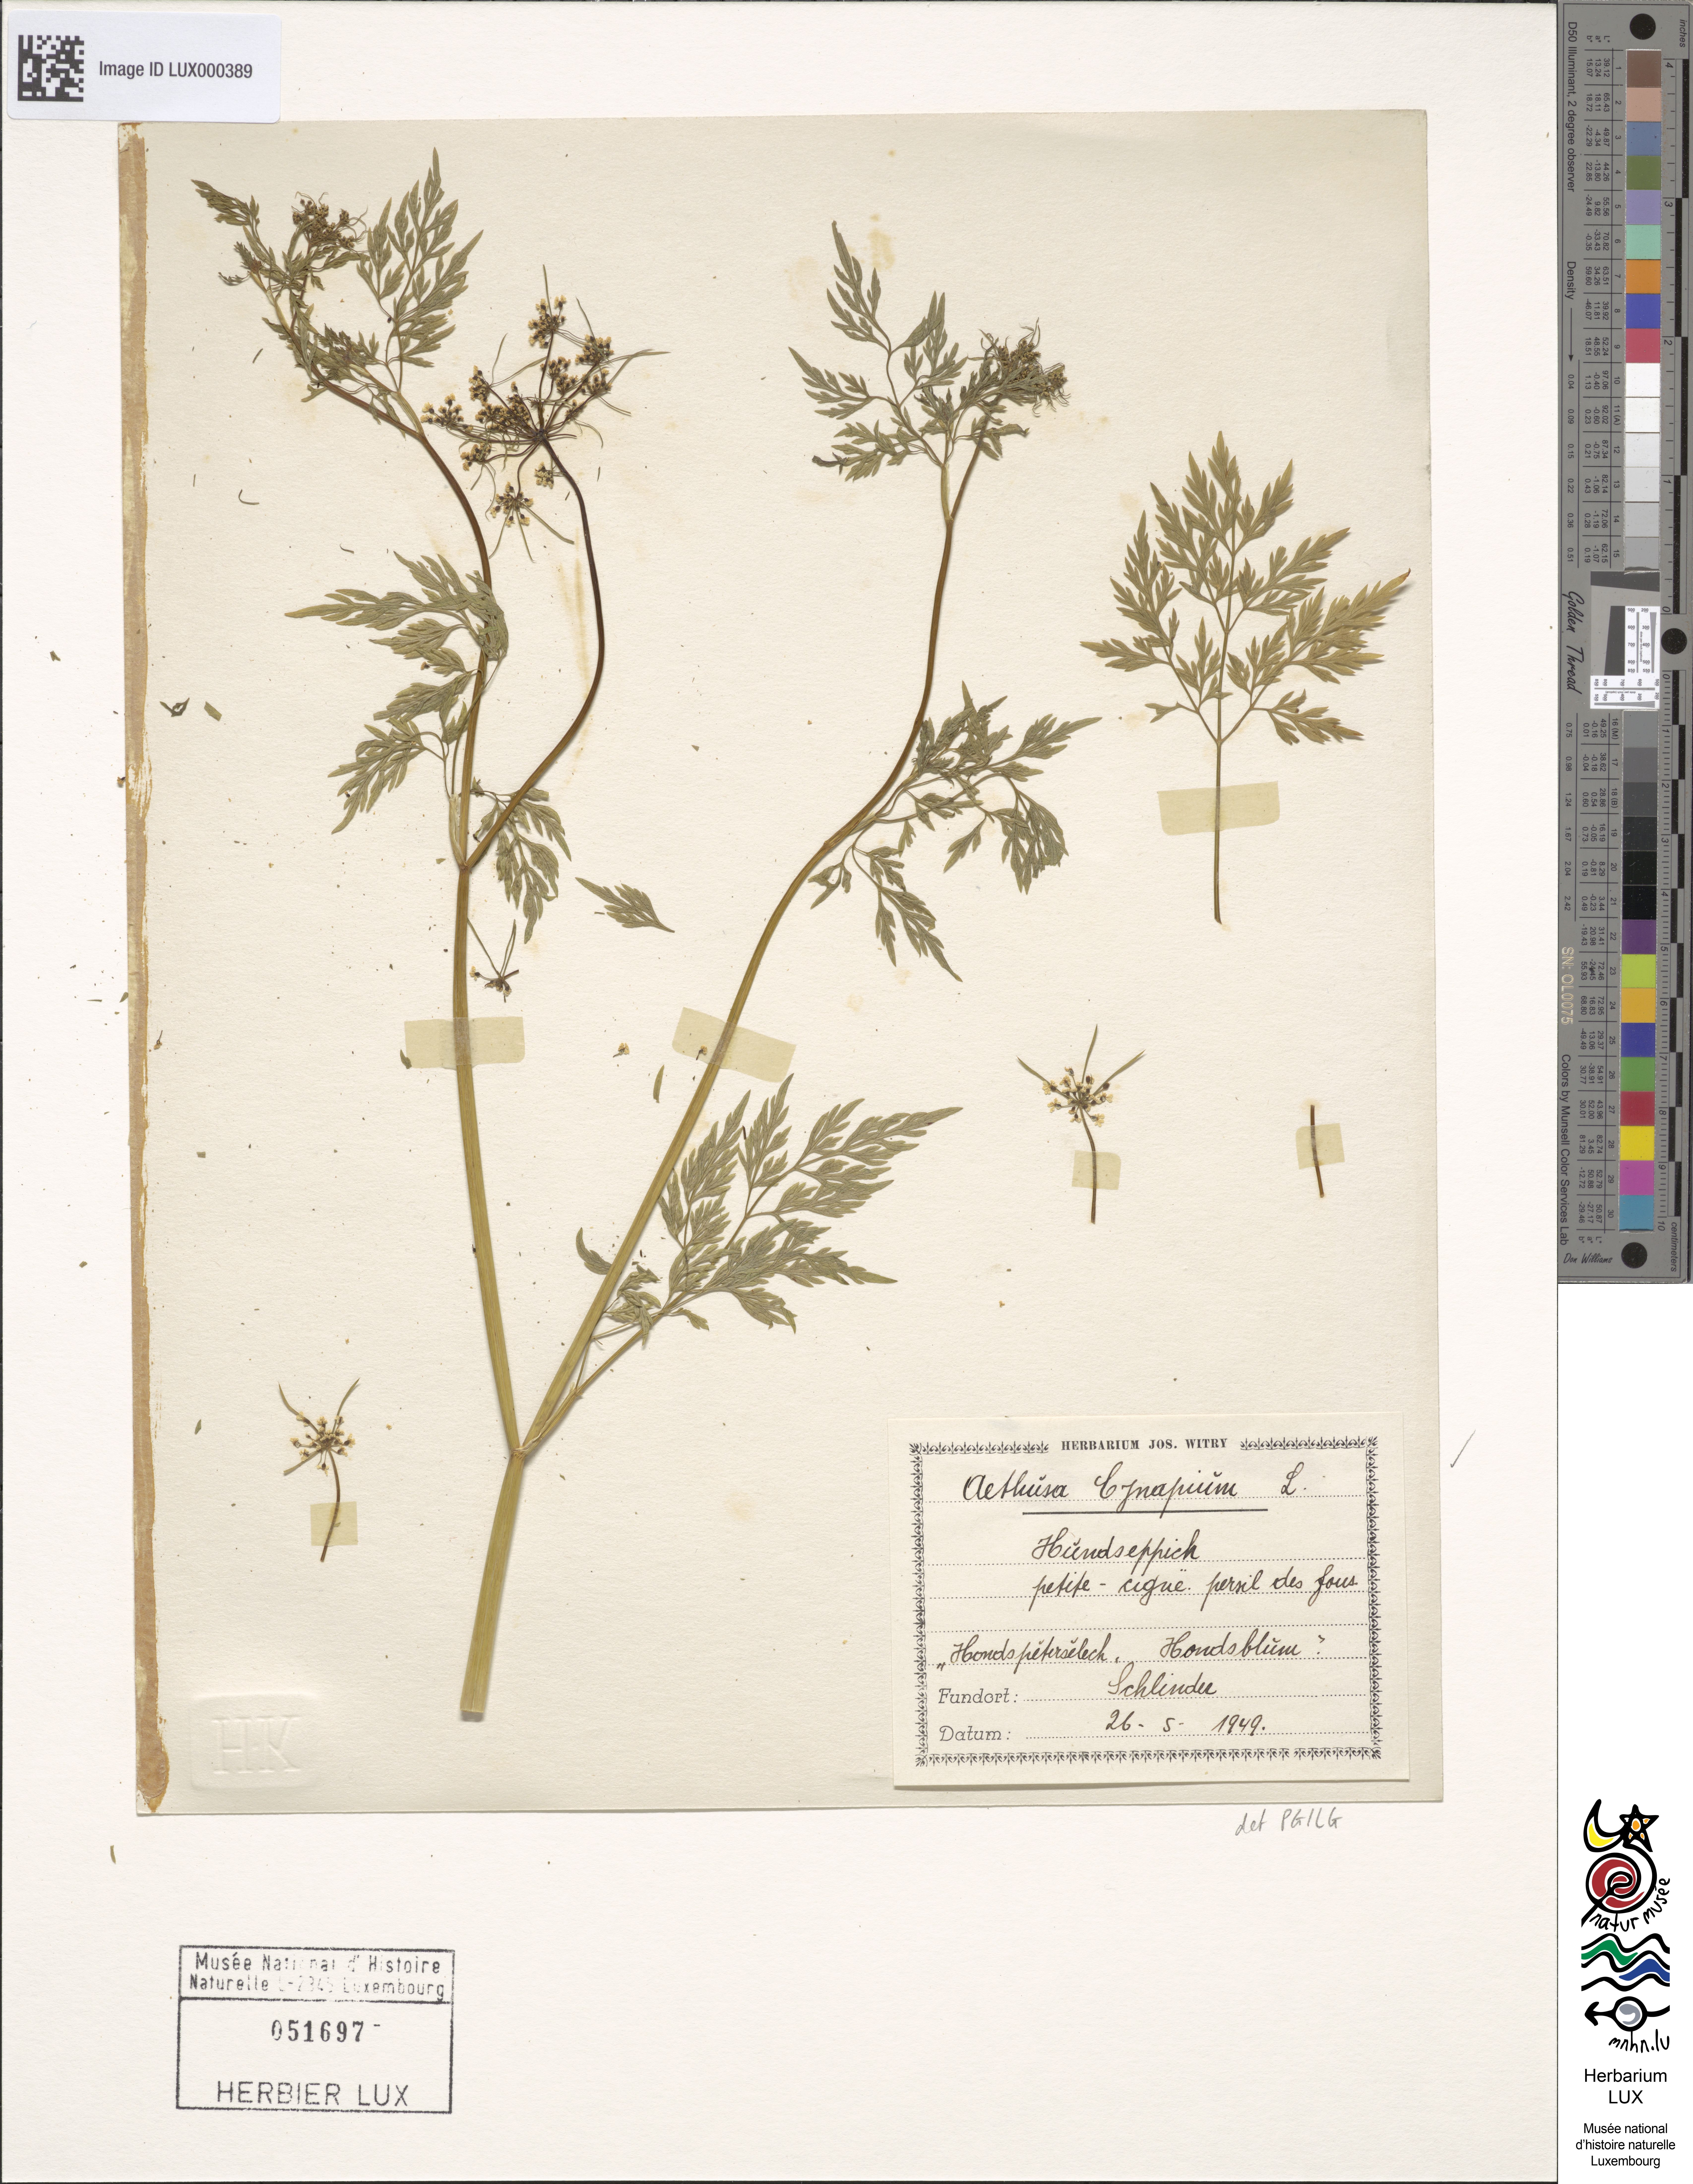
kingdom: Plantae
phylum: Tracheophyta
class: Magnoliopsida
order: Apiales
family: Apiaceae
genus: Aethusa
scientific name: Aethusa cynapium
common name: Fool's parsley
